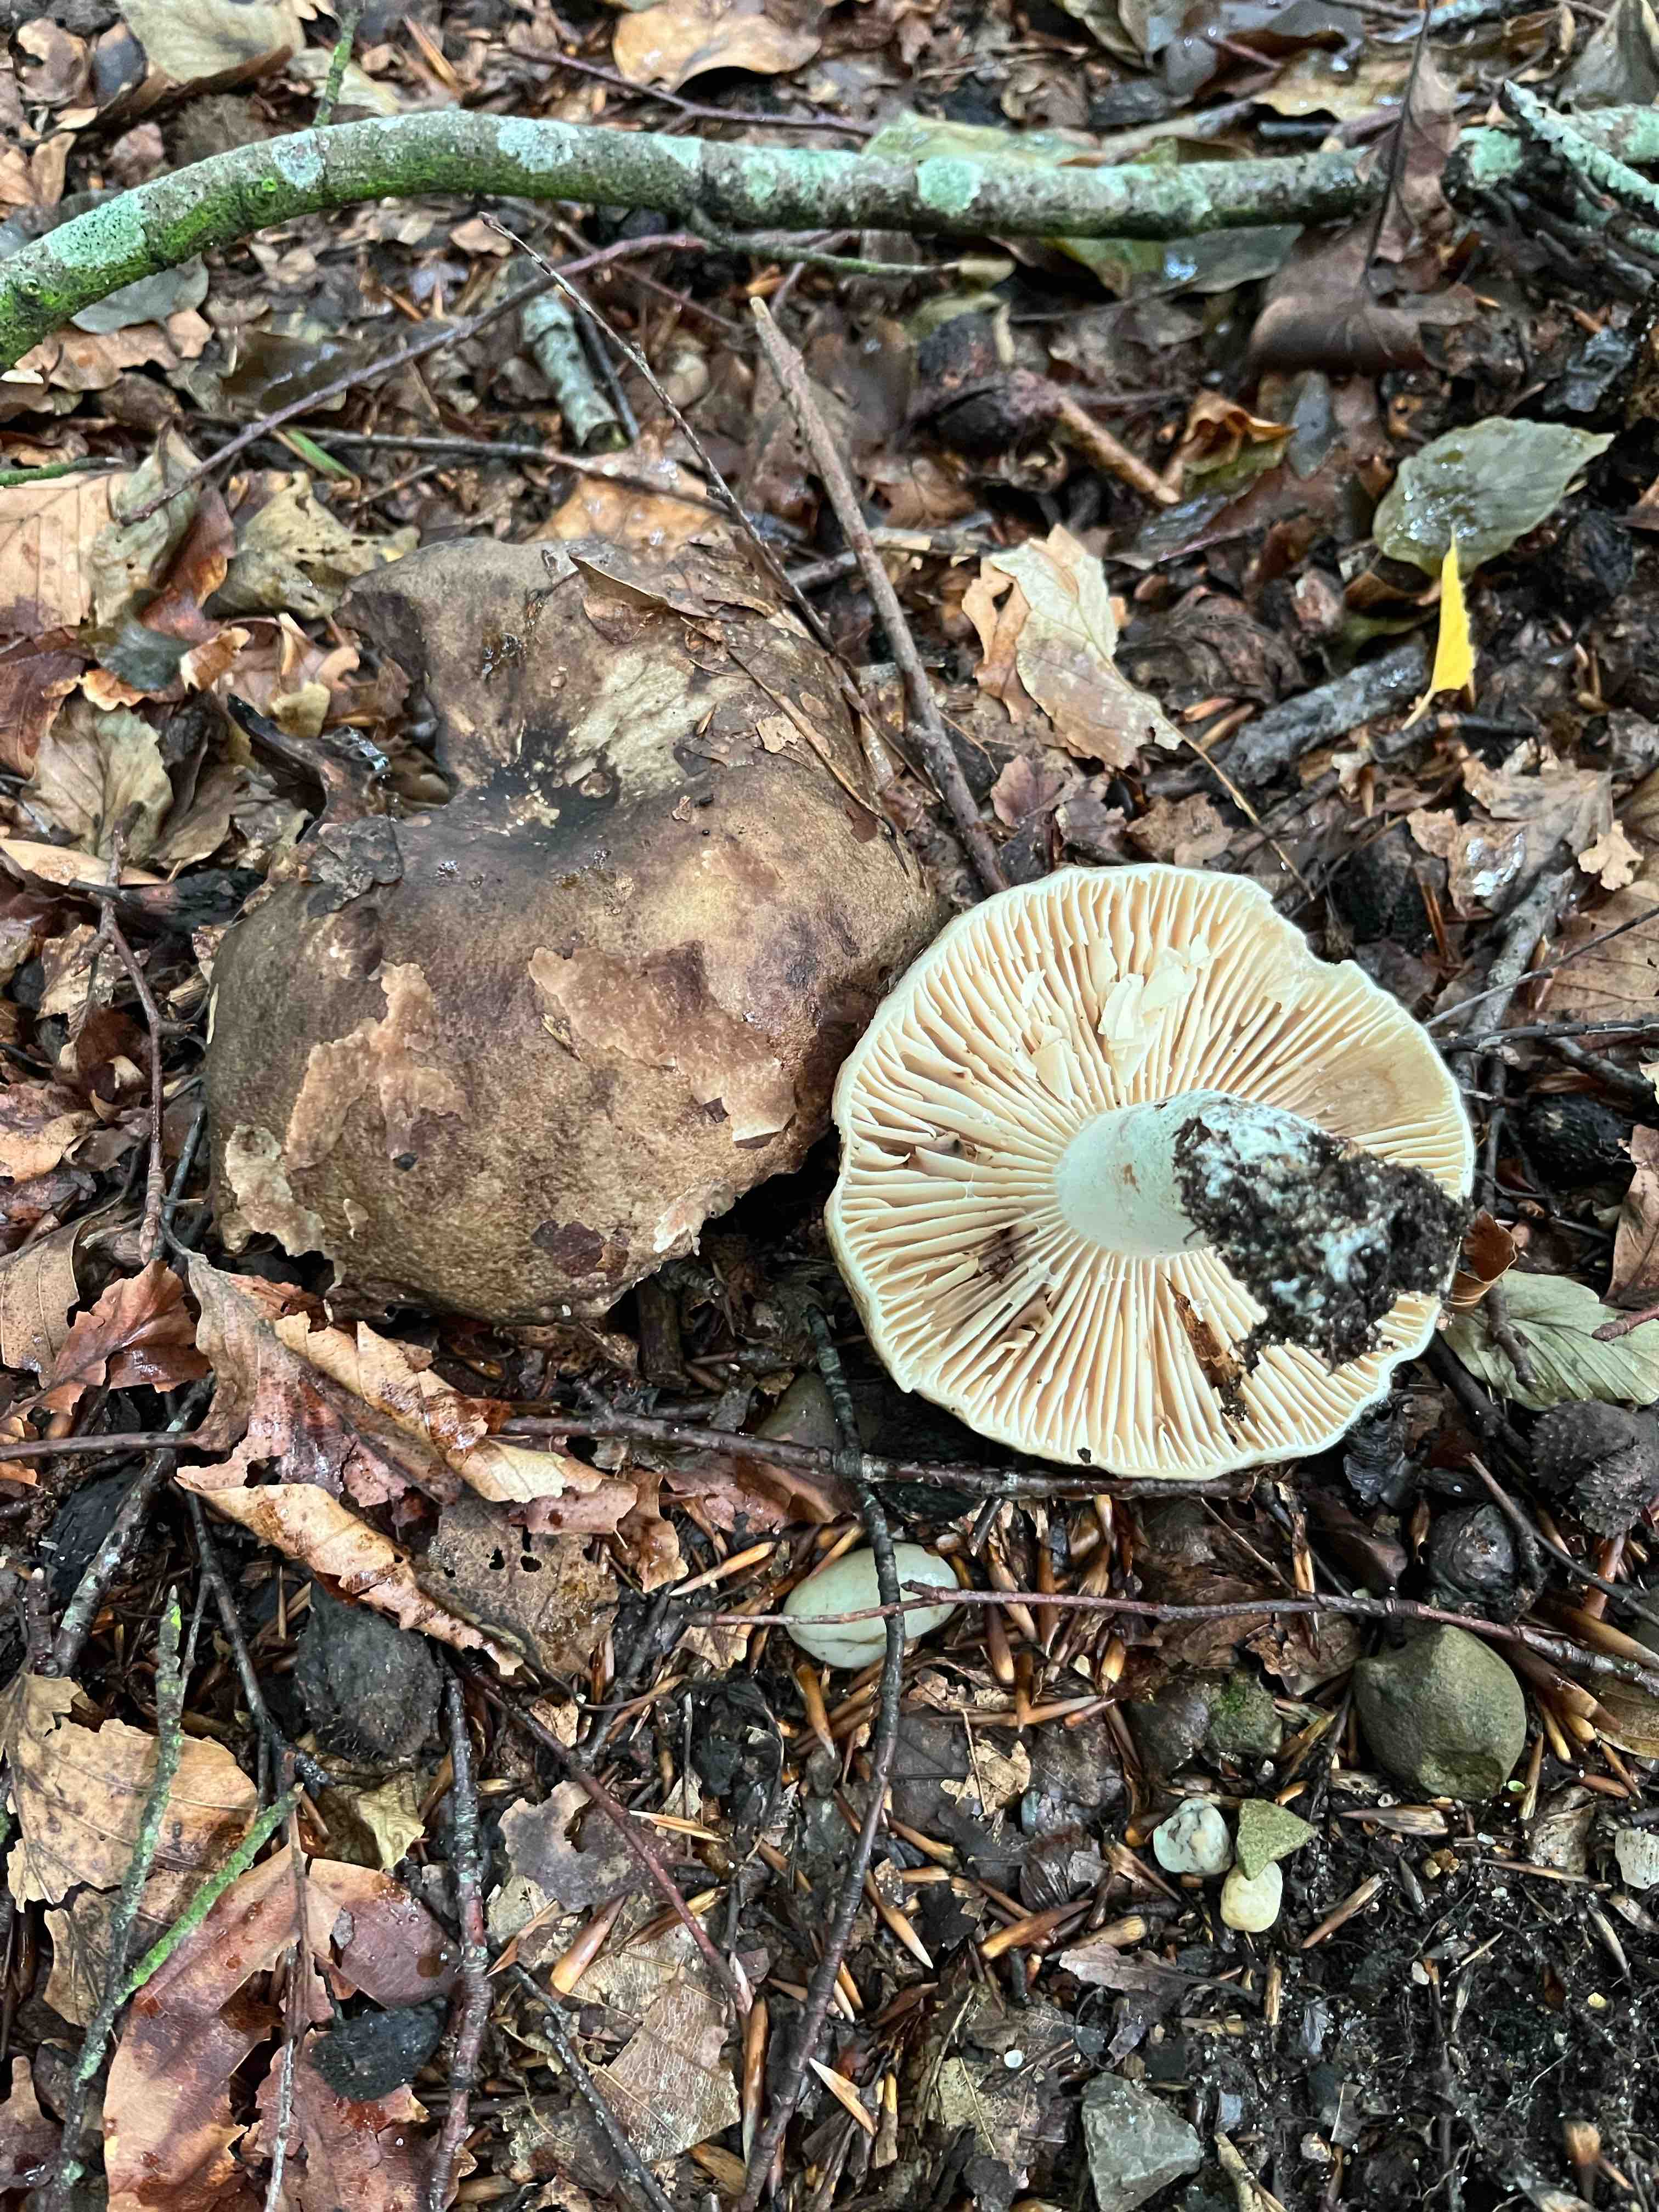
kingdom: Fungi
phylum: Basidiomycota
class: Agaricomycetes
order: Russulales
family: Russulaceae
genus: Russula
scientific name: Russula adusta
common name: sværtende skørhat
